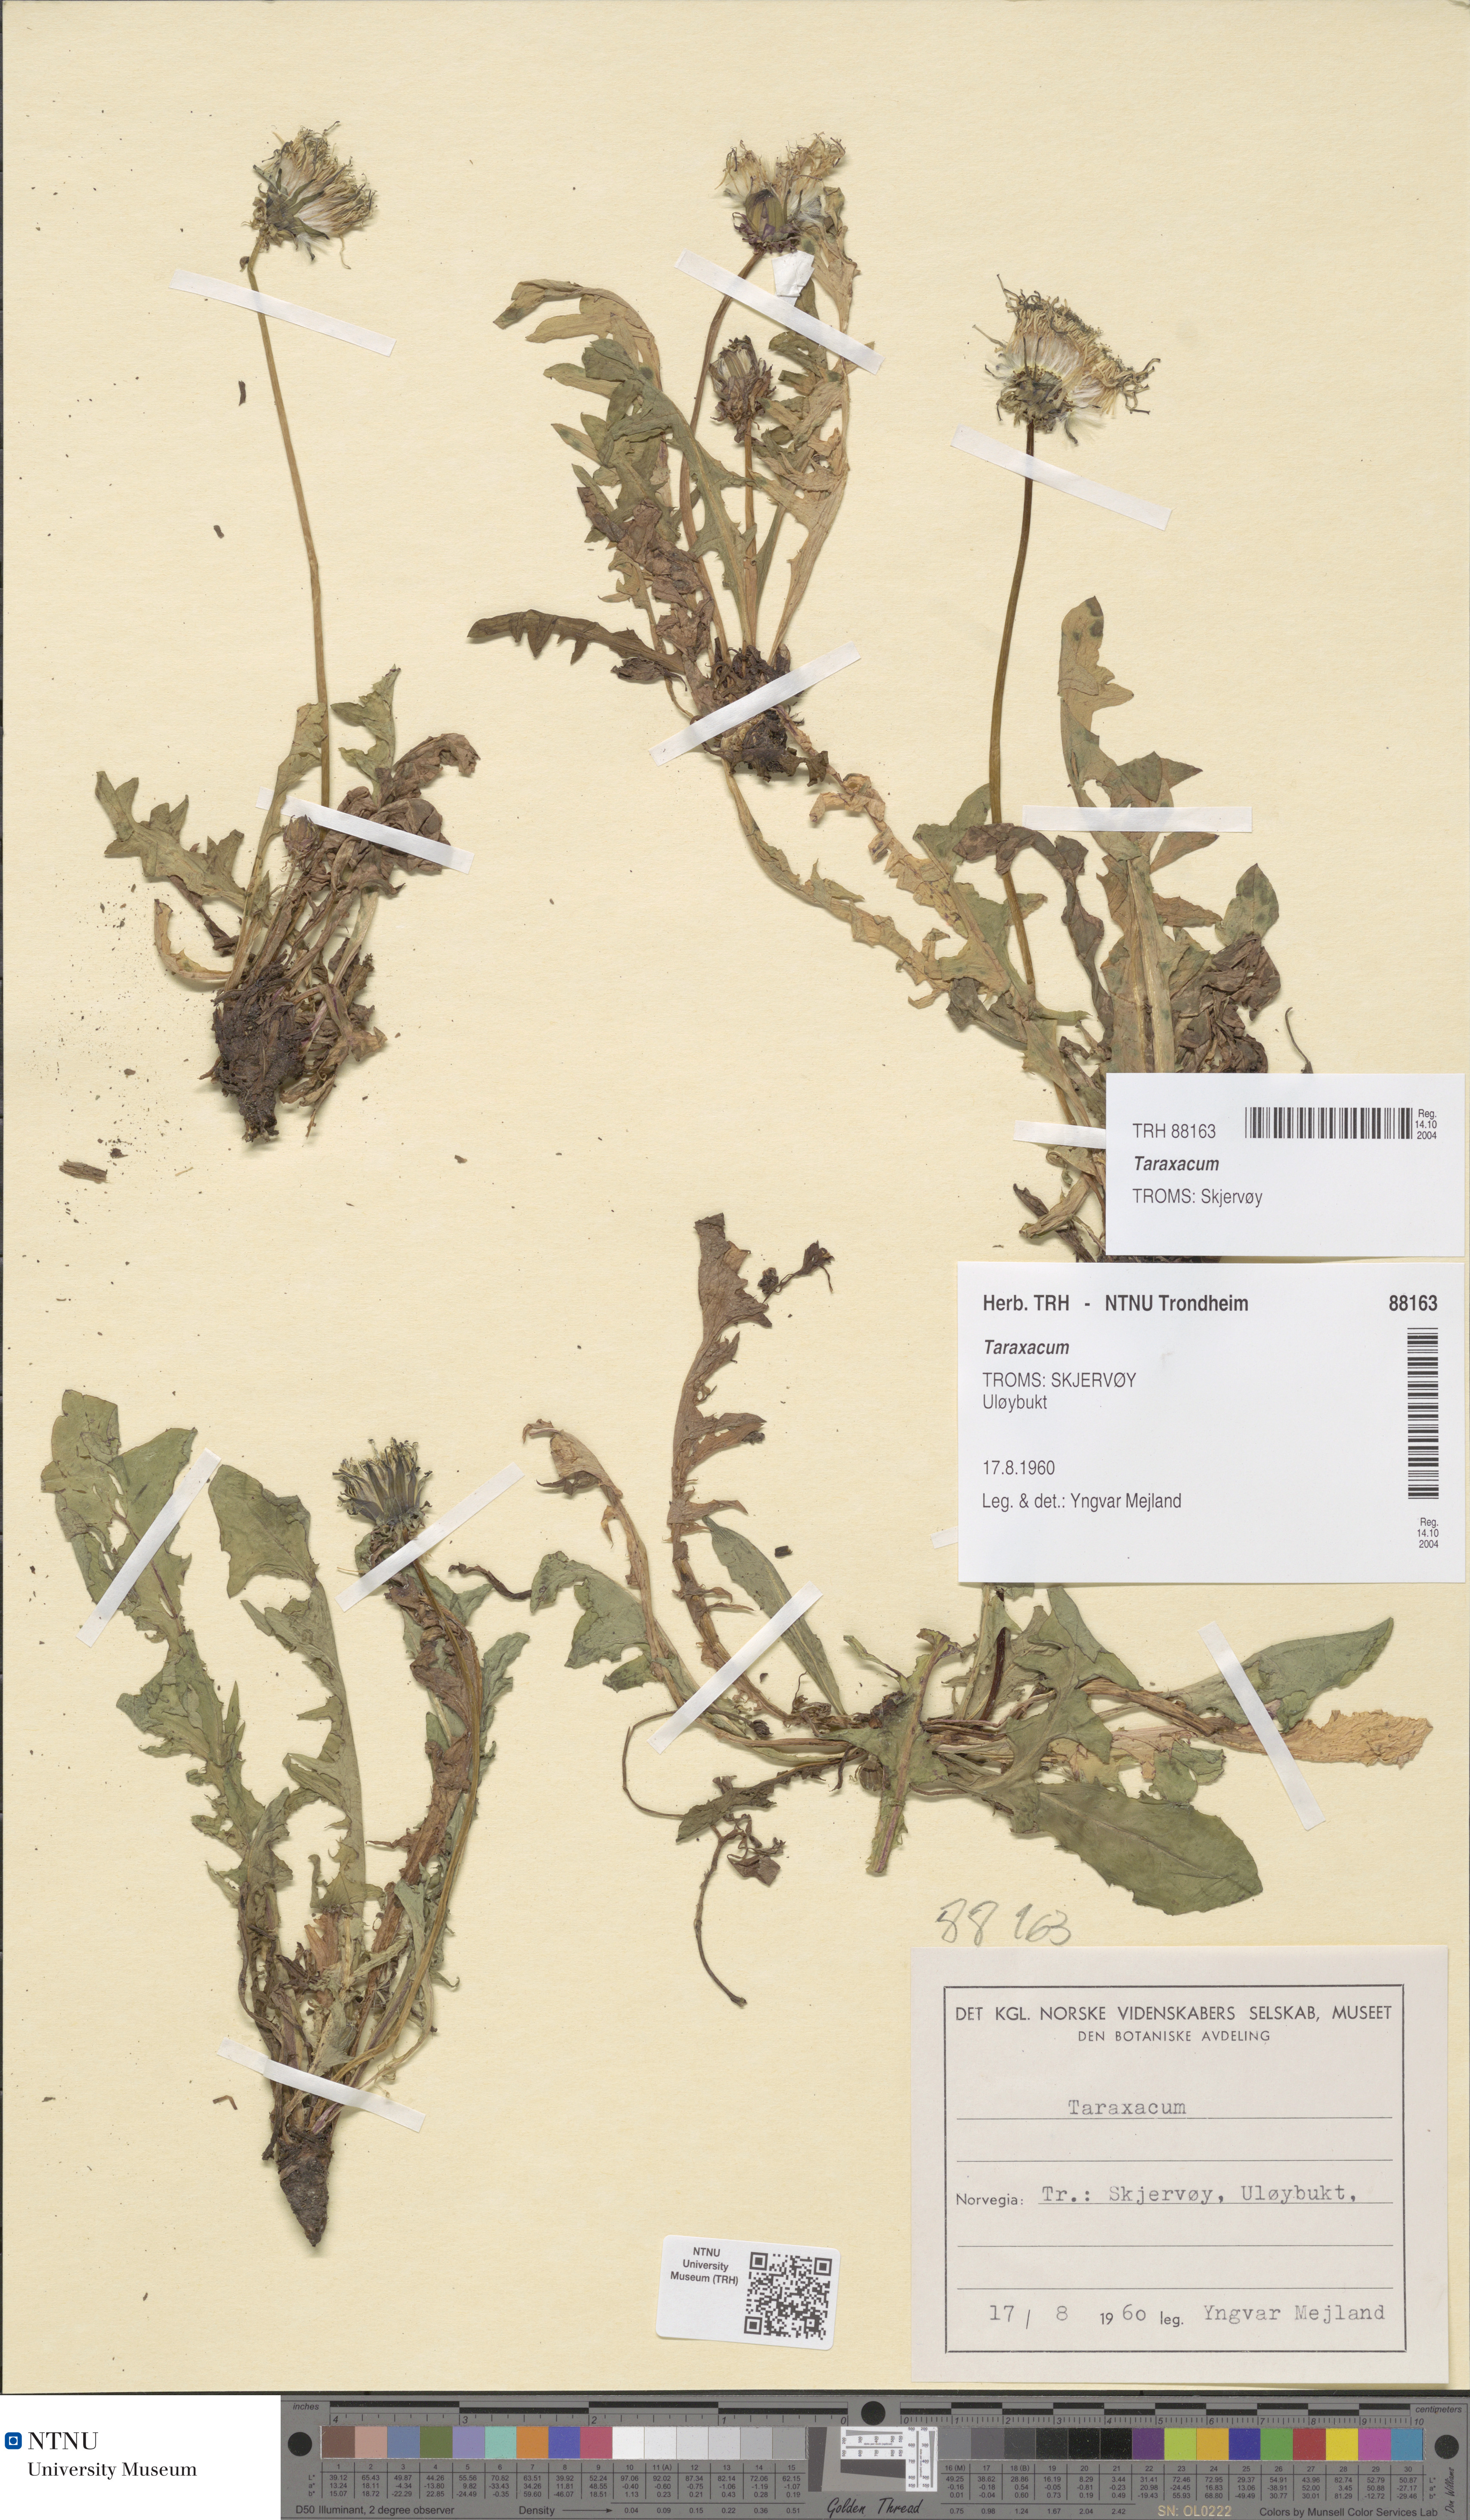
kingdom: Plantae
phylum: Tracheophyta
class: Magnoliopsida
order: Asterales
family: Asteraceae
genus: Taraxacum
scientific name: Taraxacum
